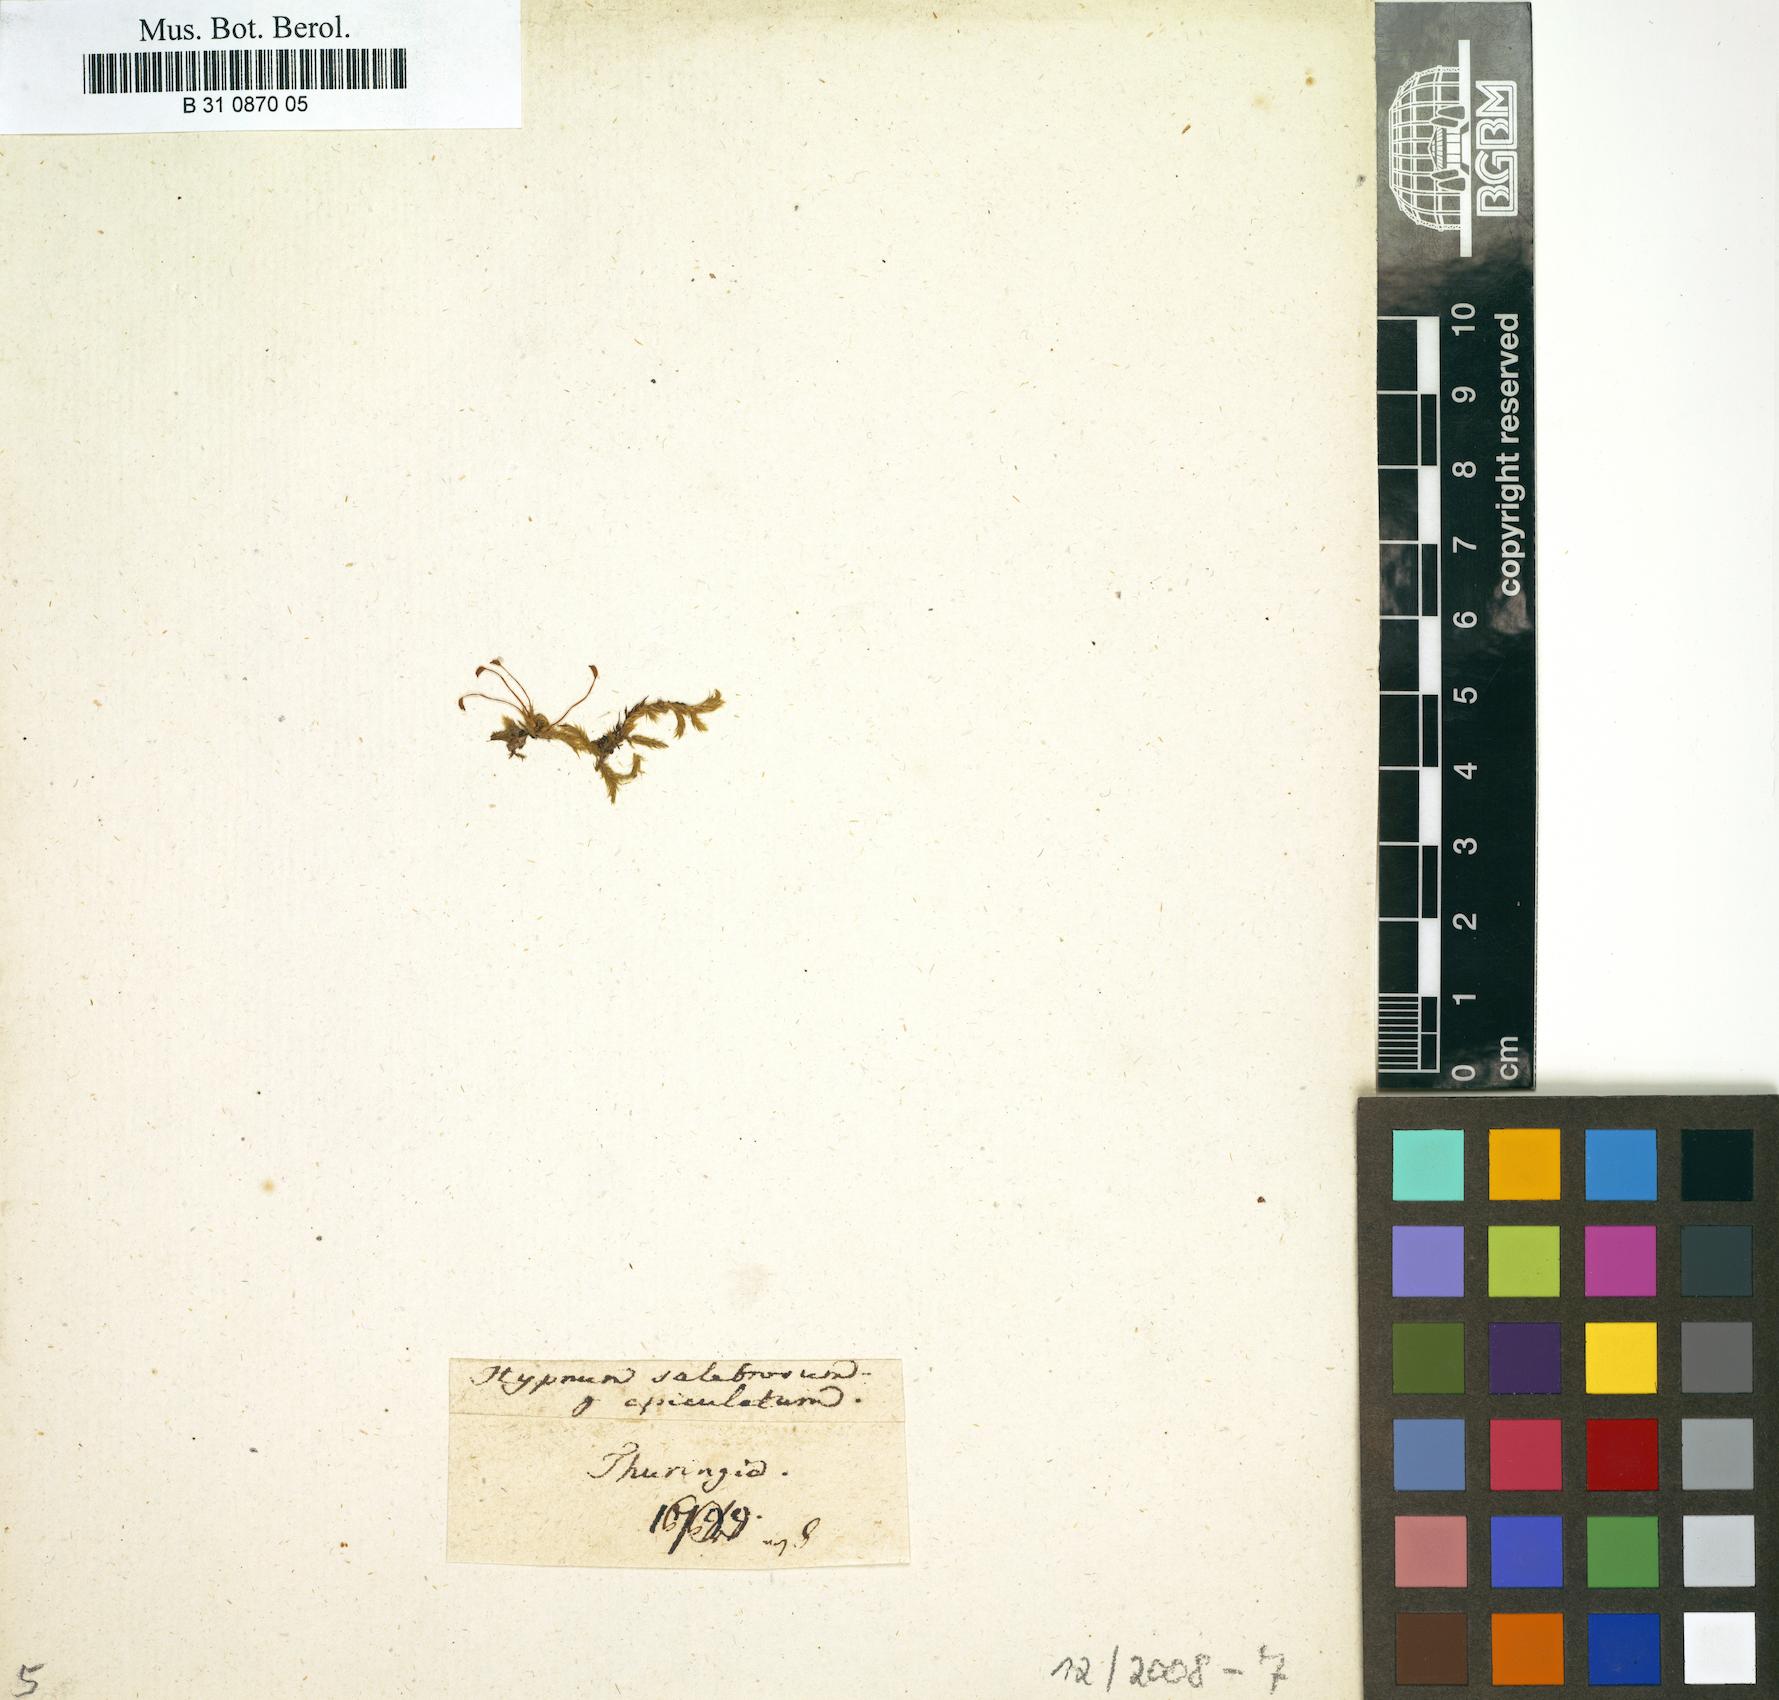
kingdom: Plantae
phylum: Bryophyta
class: Bryopsida
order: Hypnales
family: Brachytheciaceae
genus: Brachythecium
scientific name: Brachythecium salebrosum
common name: Smooth-stalk feather-moss
